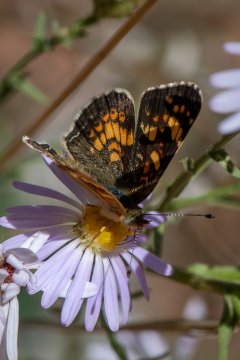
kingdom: Animalia
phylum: Arthropoda
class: Insecta
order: Lepidoptera
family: Nymphalidae
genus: Phyciodes
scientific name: Phyciodes tharos
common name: Field Crescent
